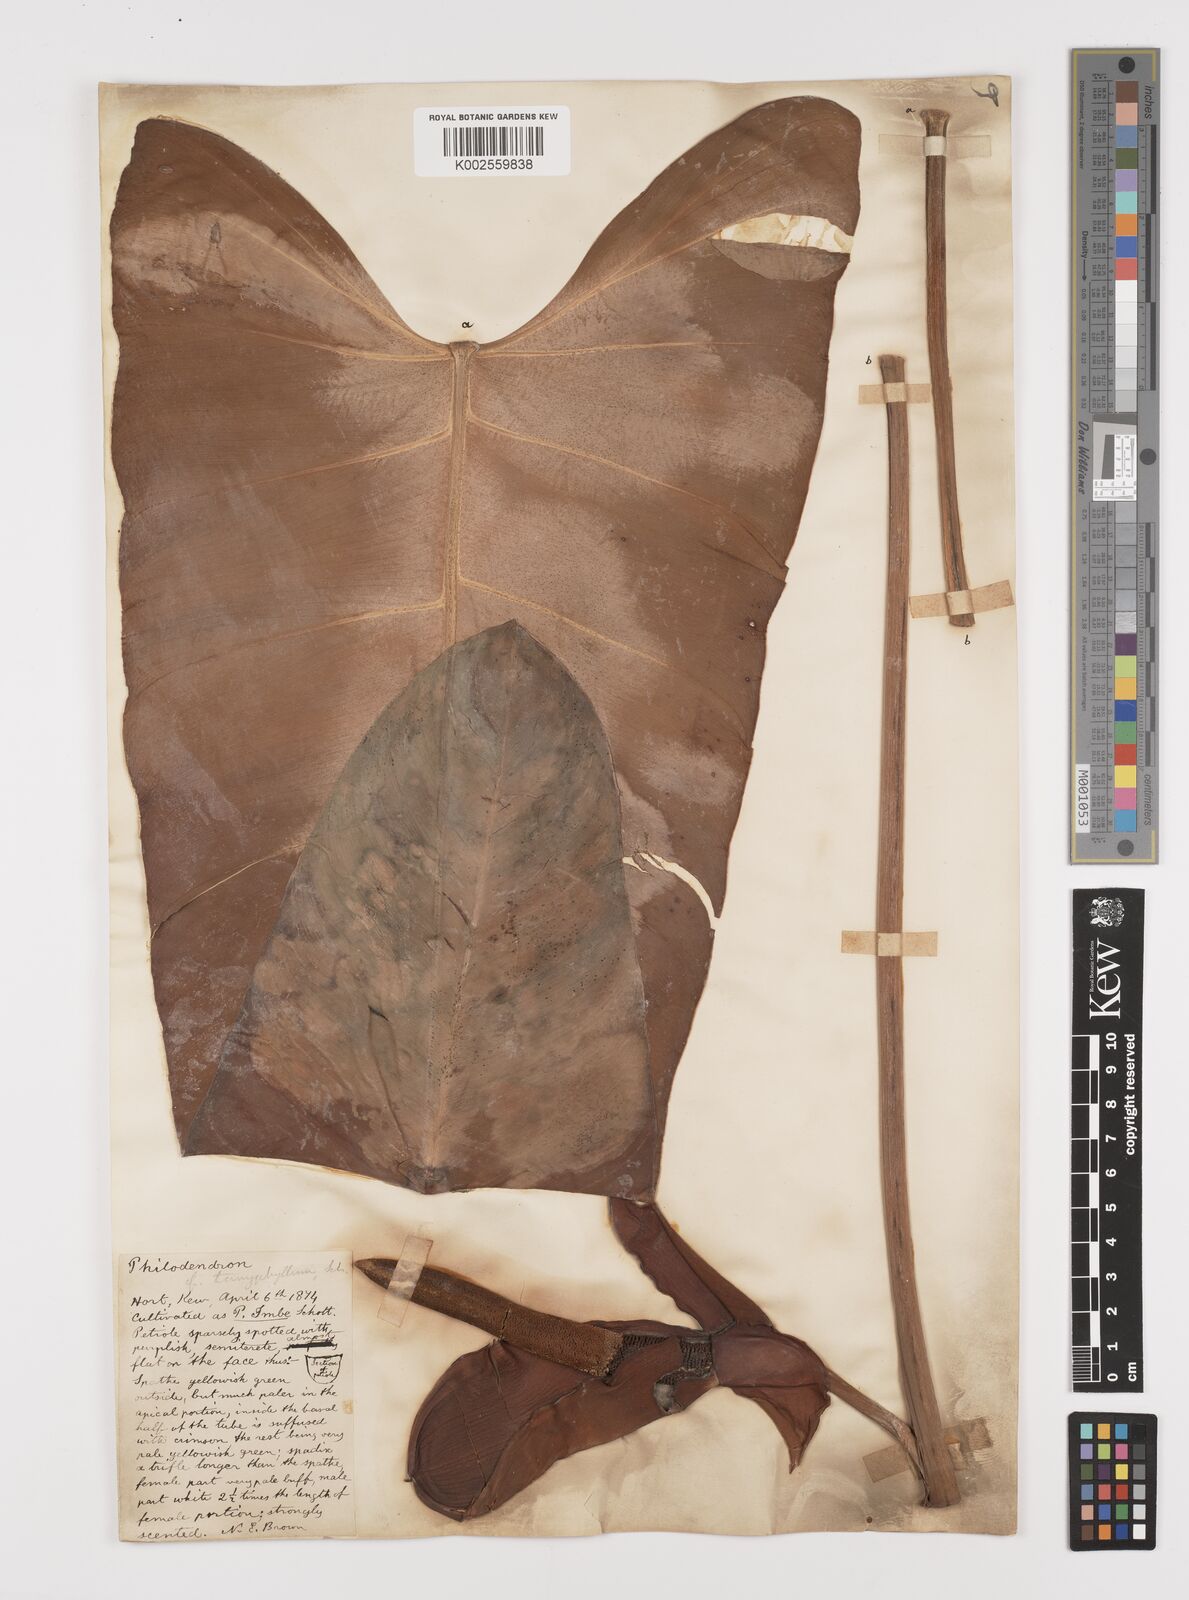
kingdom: Plantae
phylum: Tracheophyta
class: Liliopsida
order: Alismatales
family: Araceae
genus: Philodendron
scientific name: Philodendron sagittifolium
